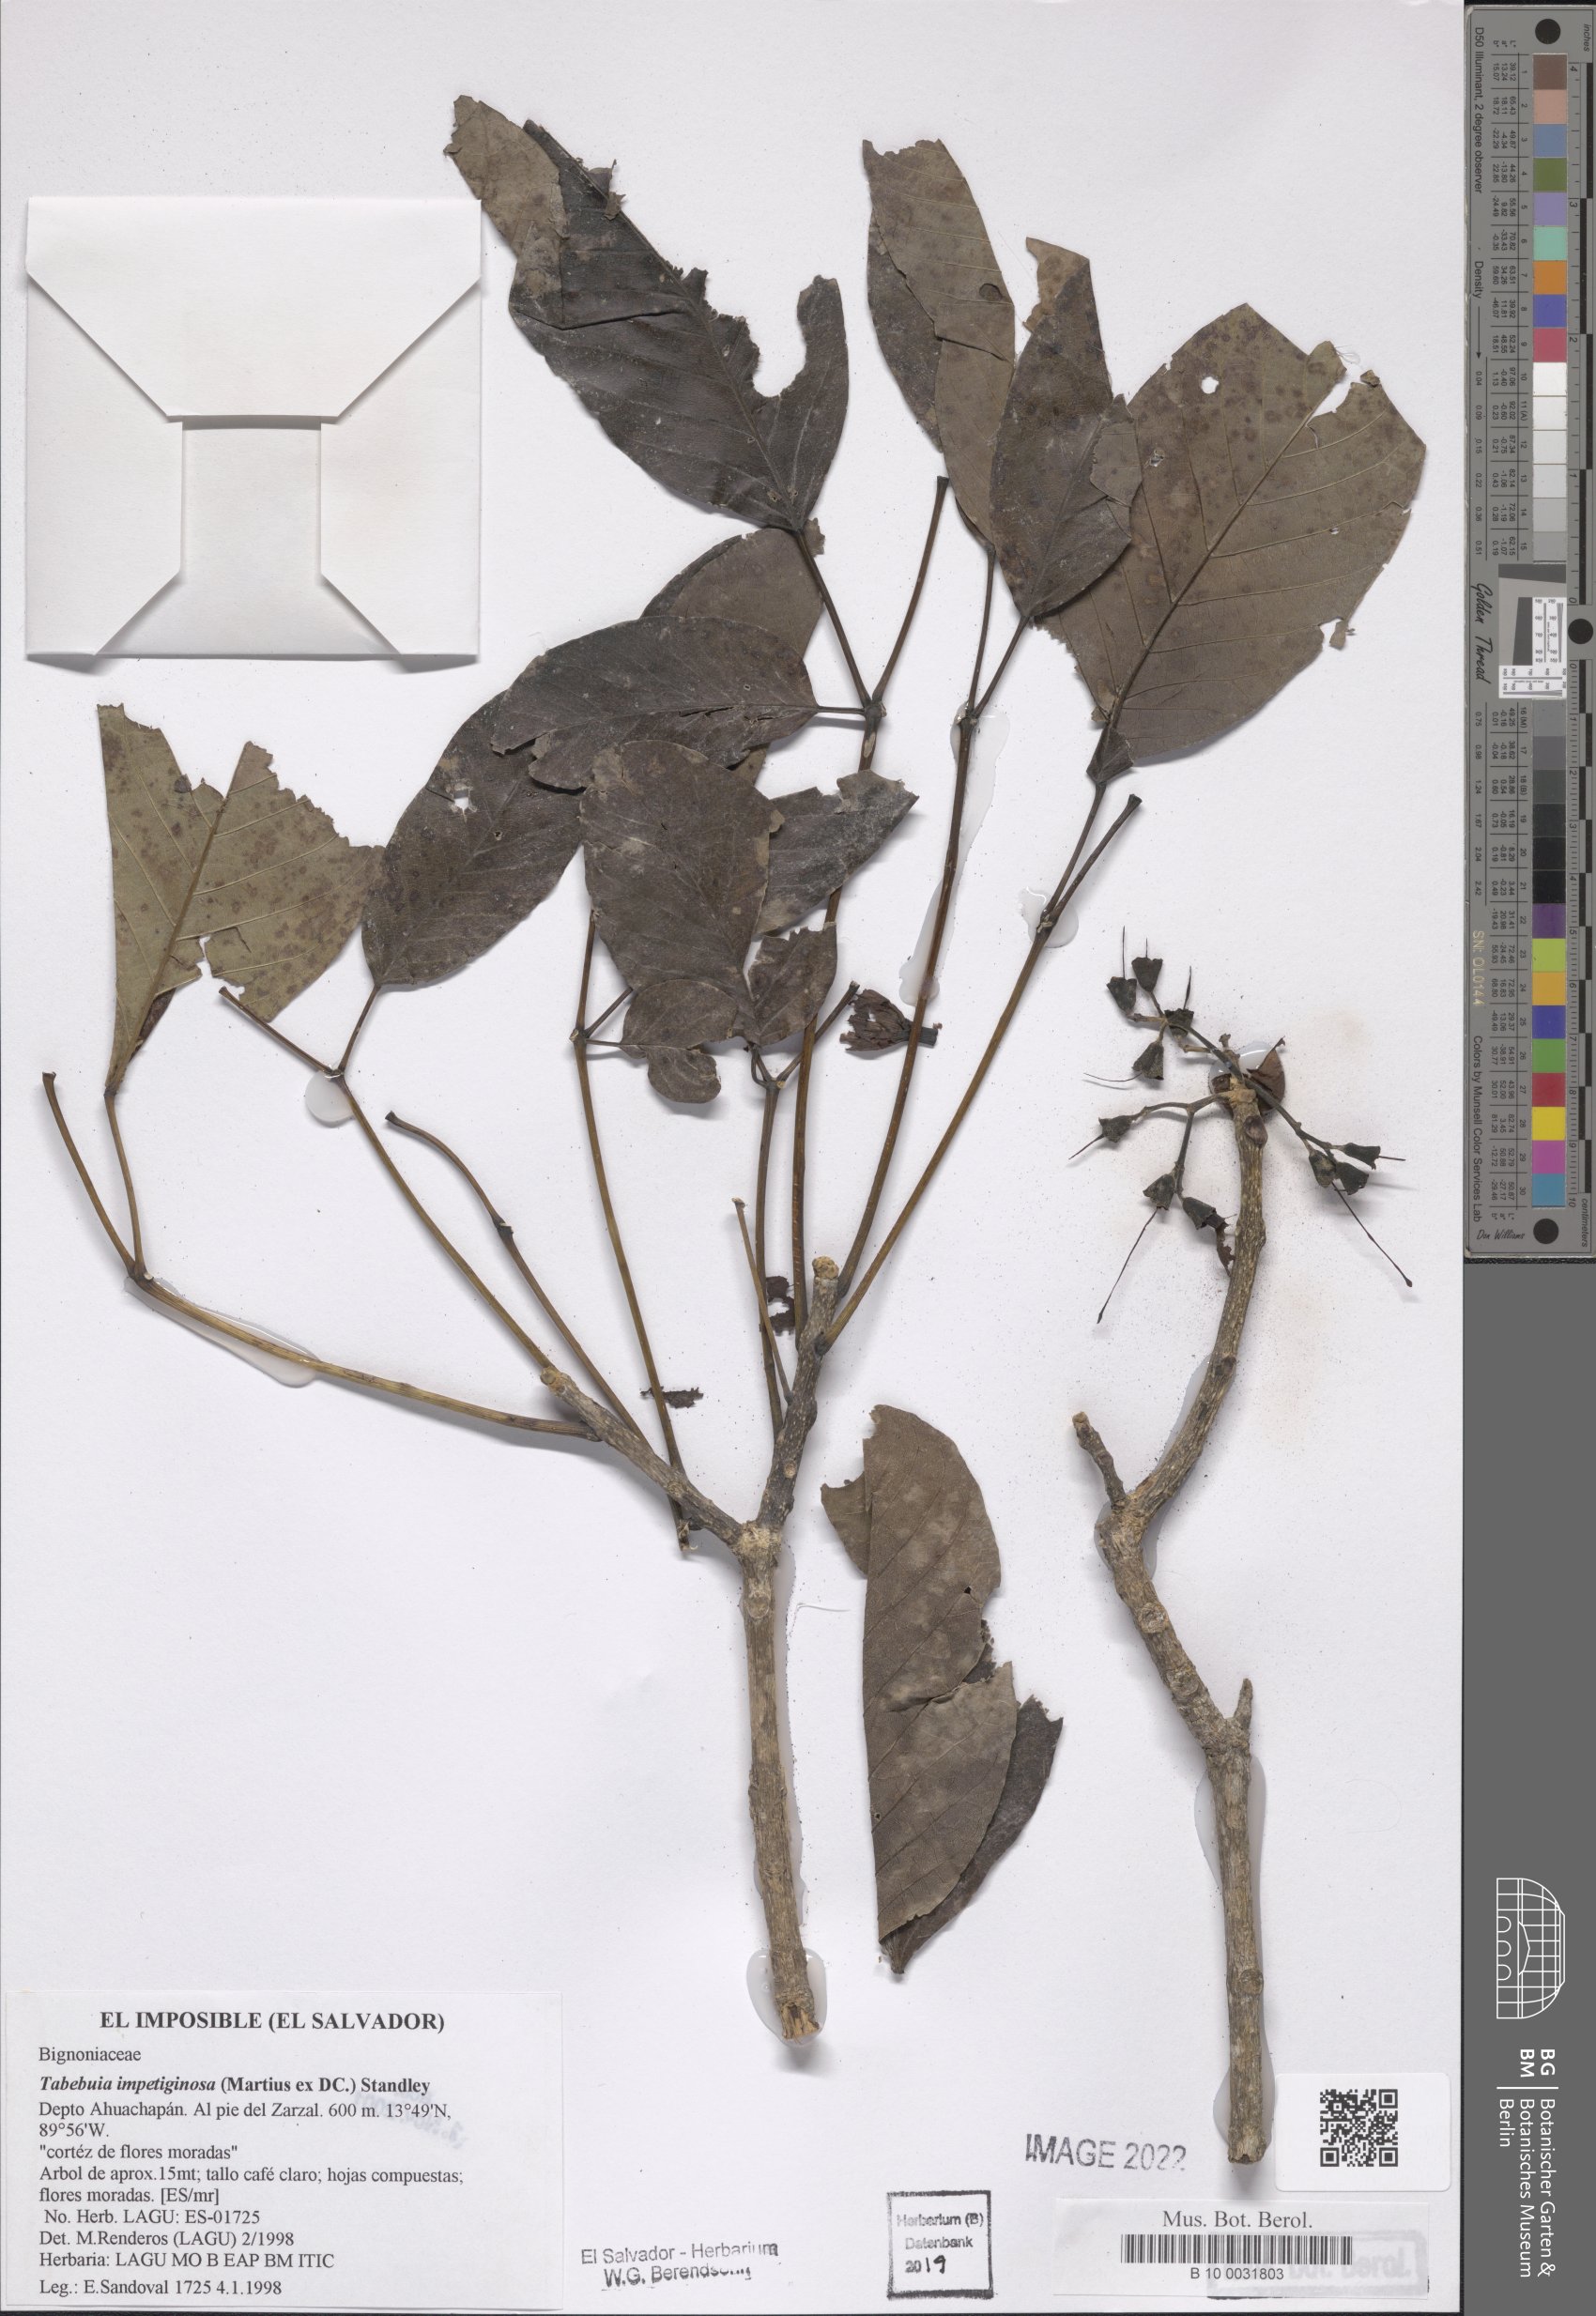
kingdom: Plantae
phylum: Tracheophyta
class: Magnoliopsida
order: Lamiales
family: Bignoniaceae
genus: Handroanthus
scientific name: Handroanthus impetiginosum
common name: Pink trumpet tree
